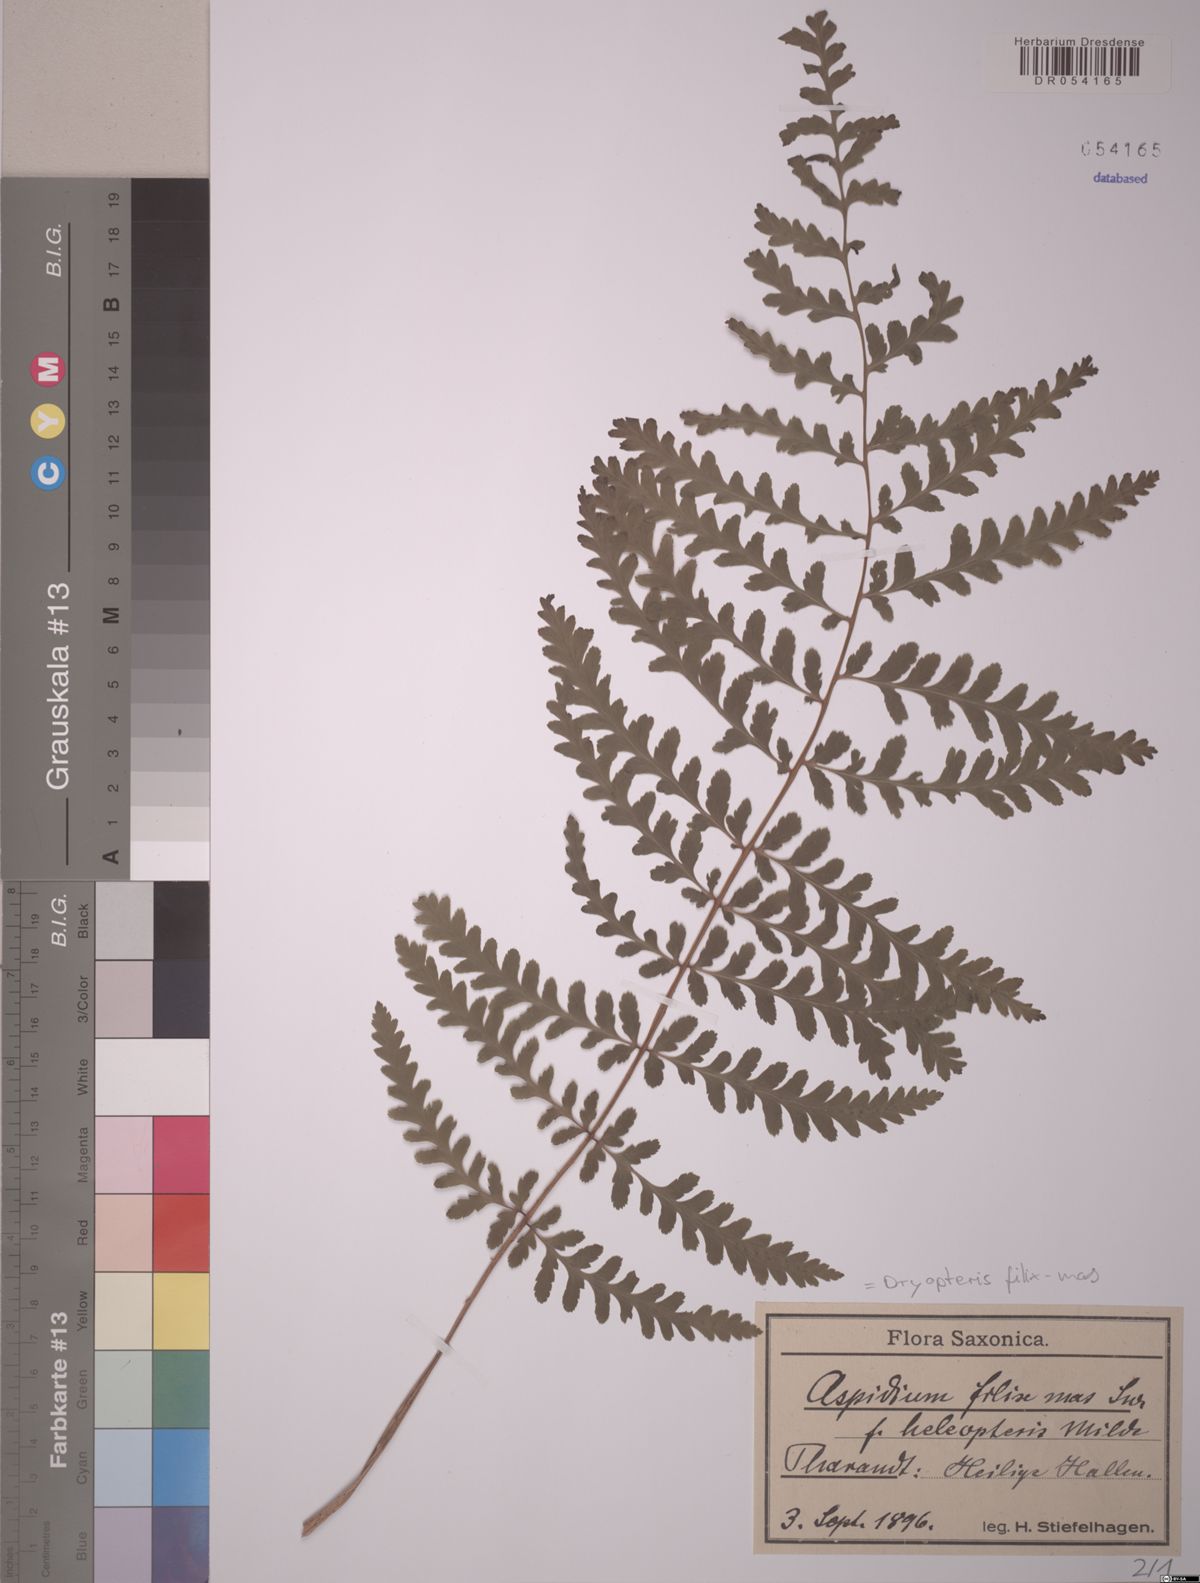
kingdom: Plantae
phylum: Tracheophyta
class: Polypodiopsida
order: Polypodiales
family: Dryopteridaceae
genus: Dryopteris
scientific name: Dryopteris filix-mas
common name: Male fern
